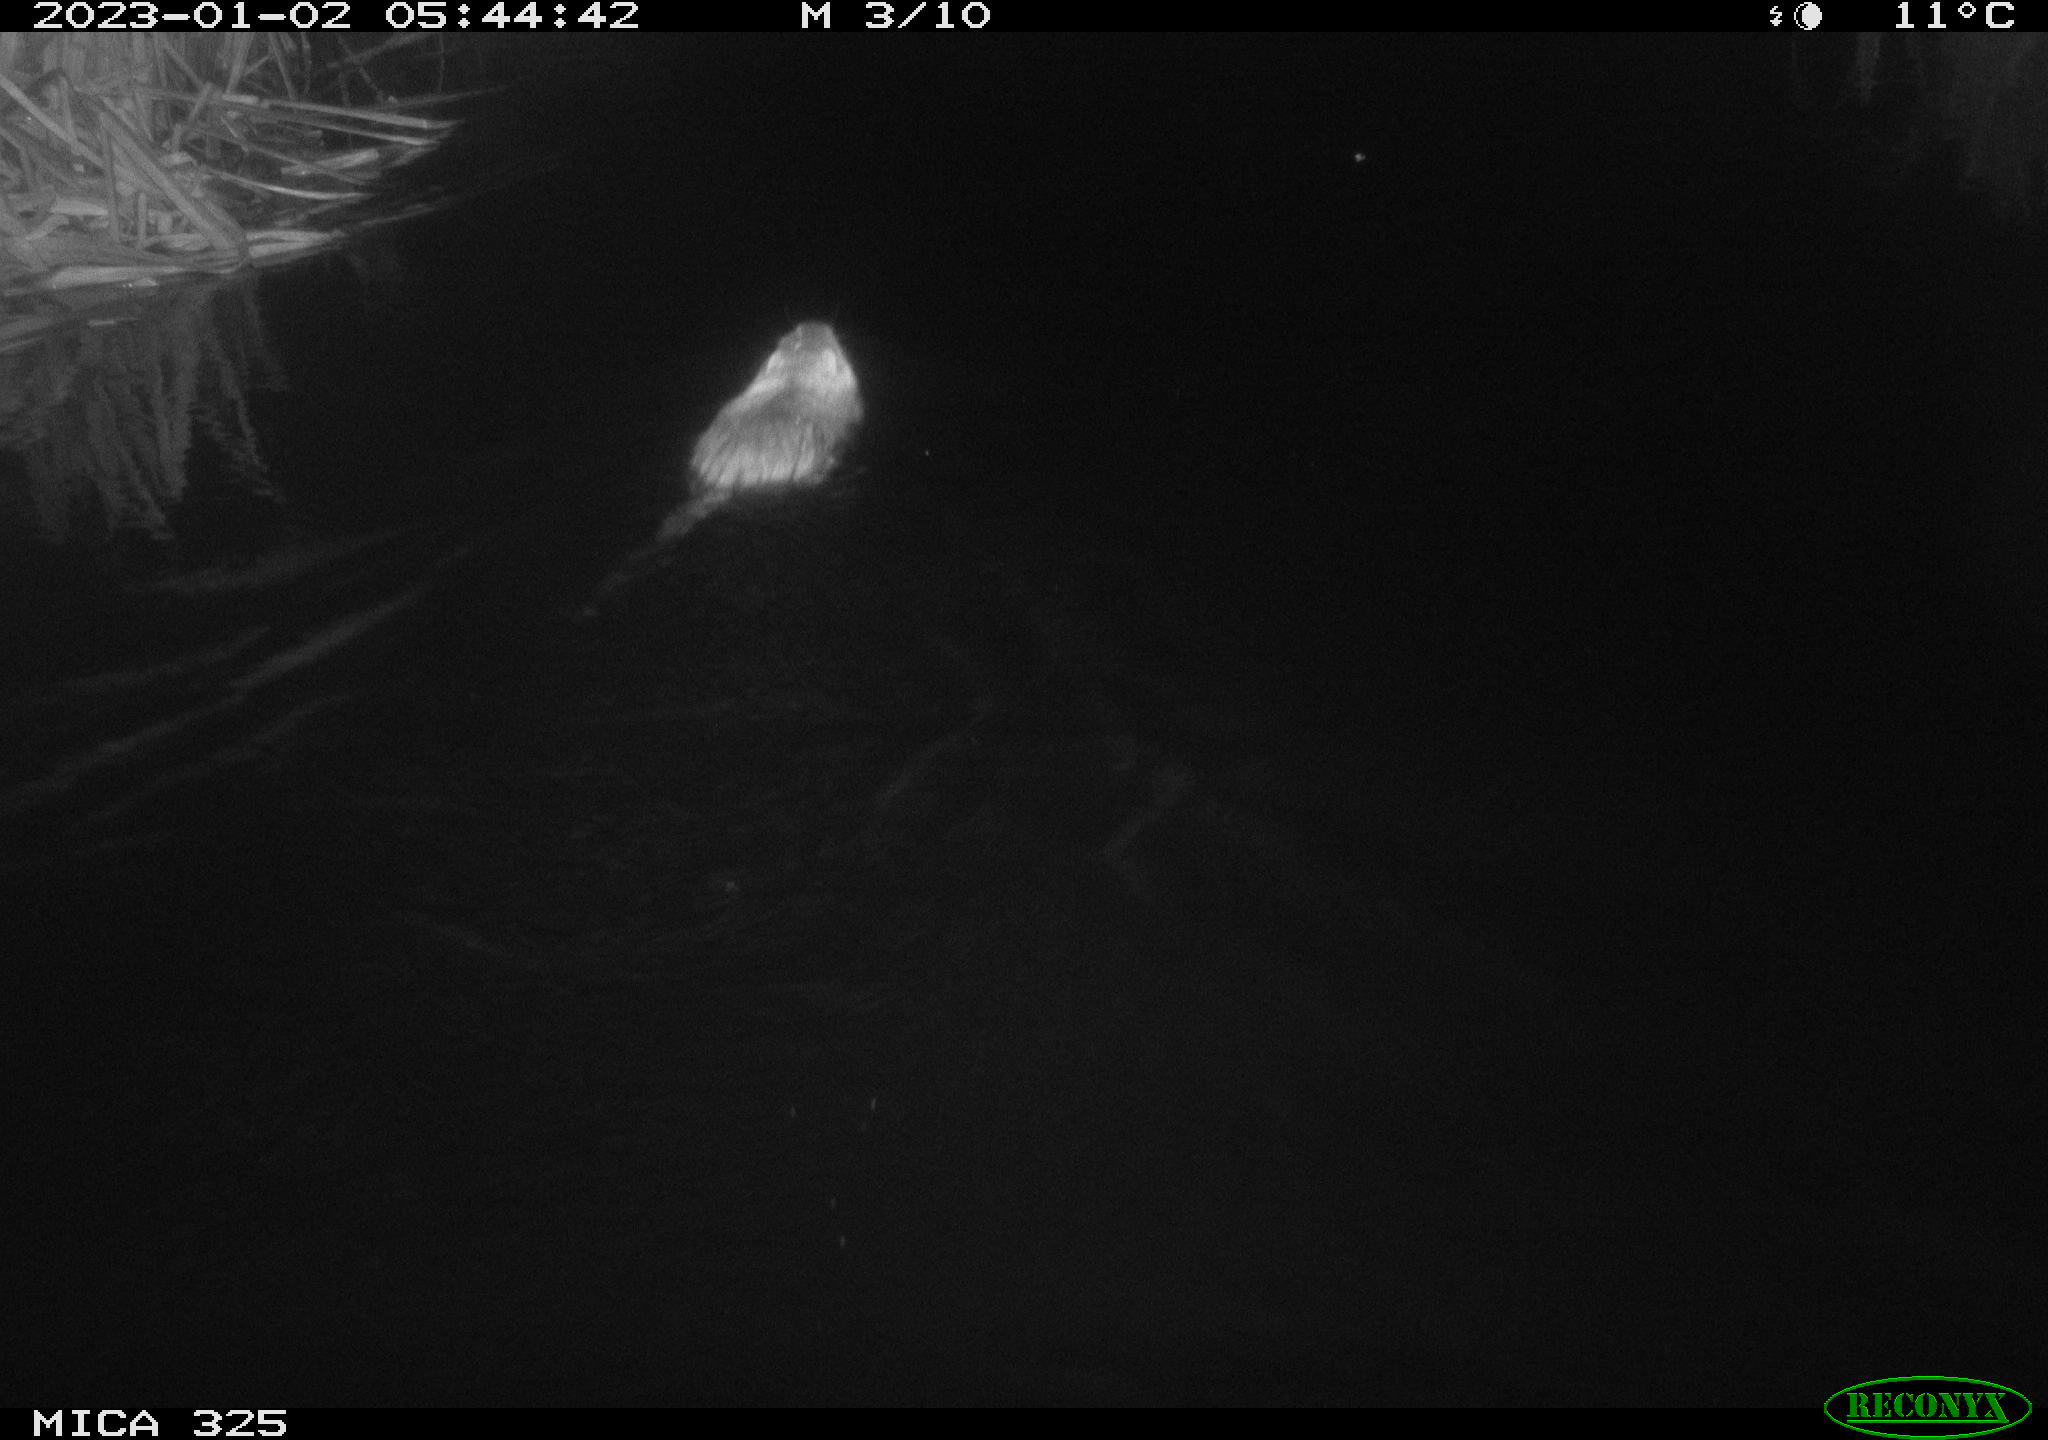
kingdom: Animalia
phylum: Chordata
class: Mammalia
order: Rodentia
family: Myocastoridae
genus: Myocastor
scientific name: Myocastor coypus
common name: Coypu
